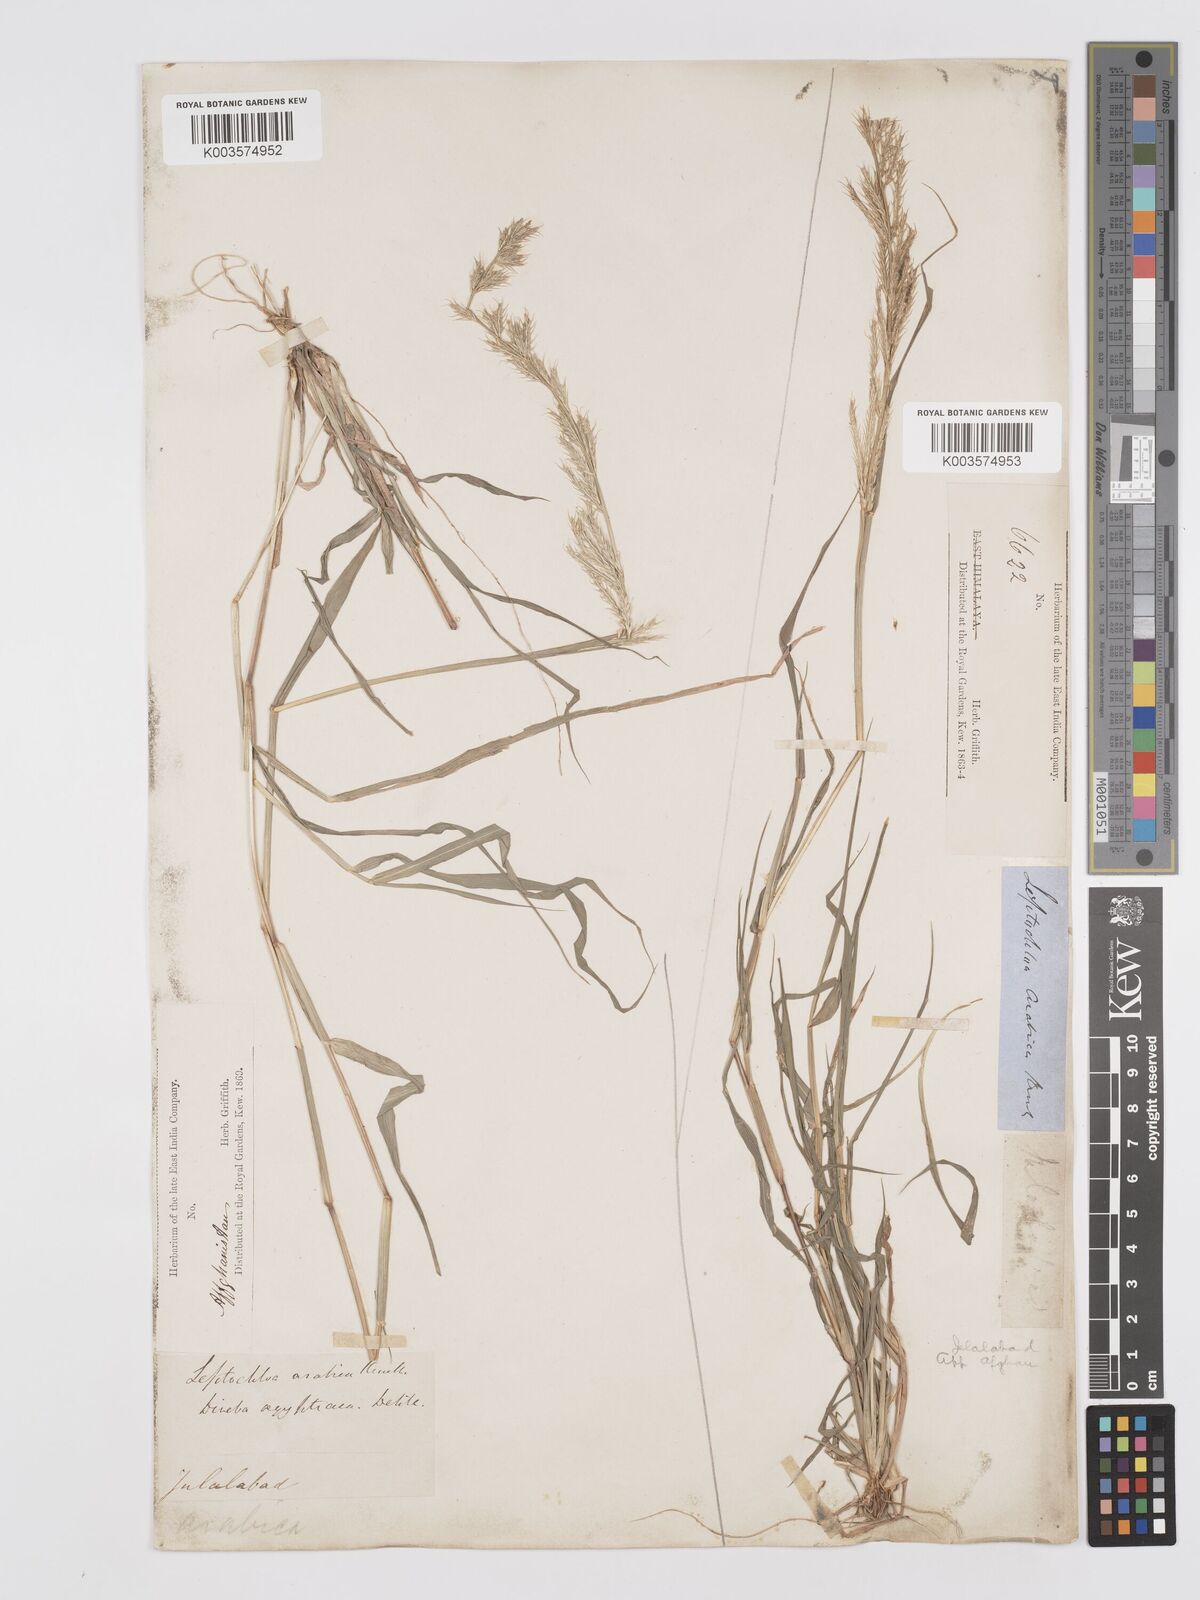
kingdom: Plantae
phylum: Tracheophyta
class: Liliopsida
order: Poales
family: Poaceae
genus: Dinebra
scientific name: Dinebra retroflexa
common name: Viper grass
